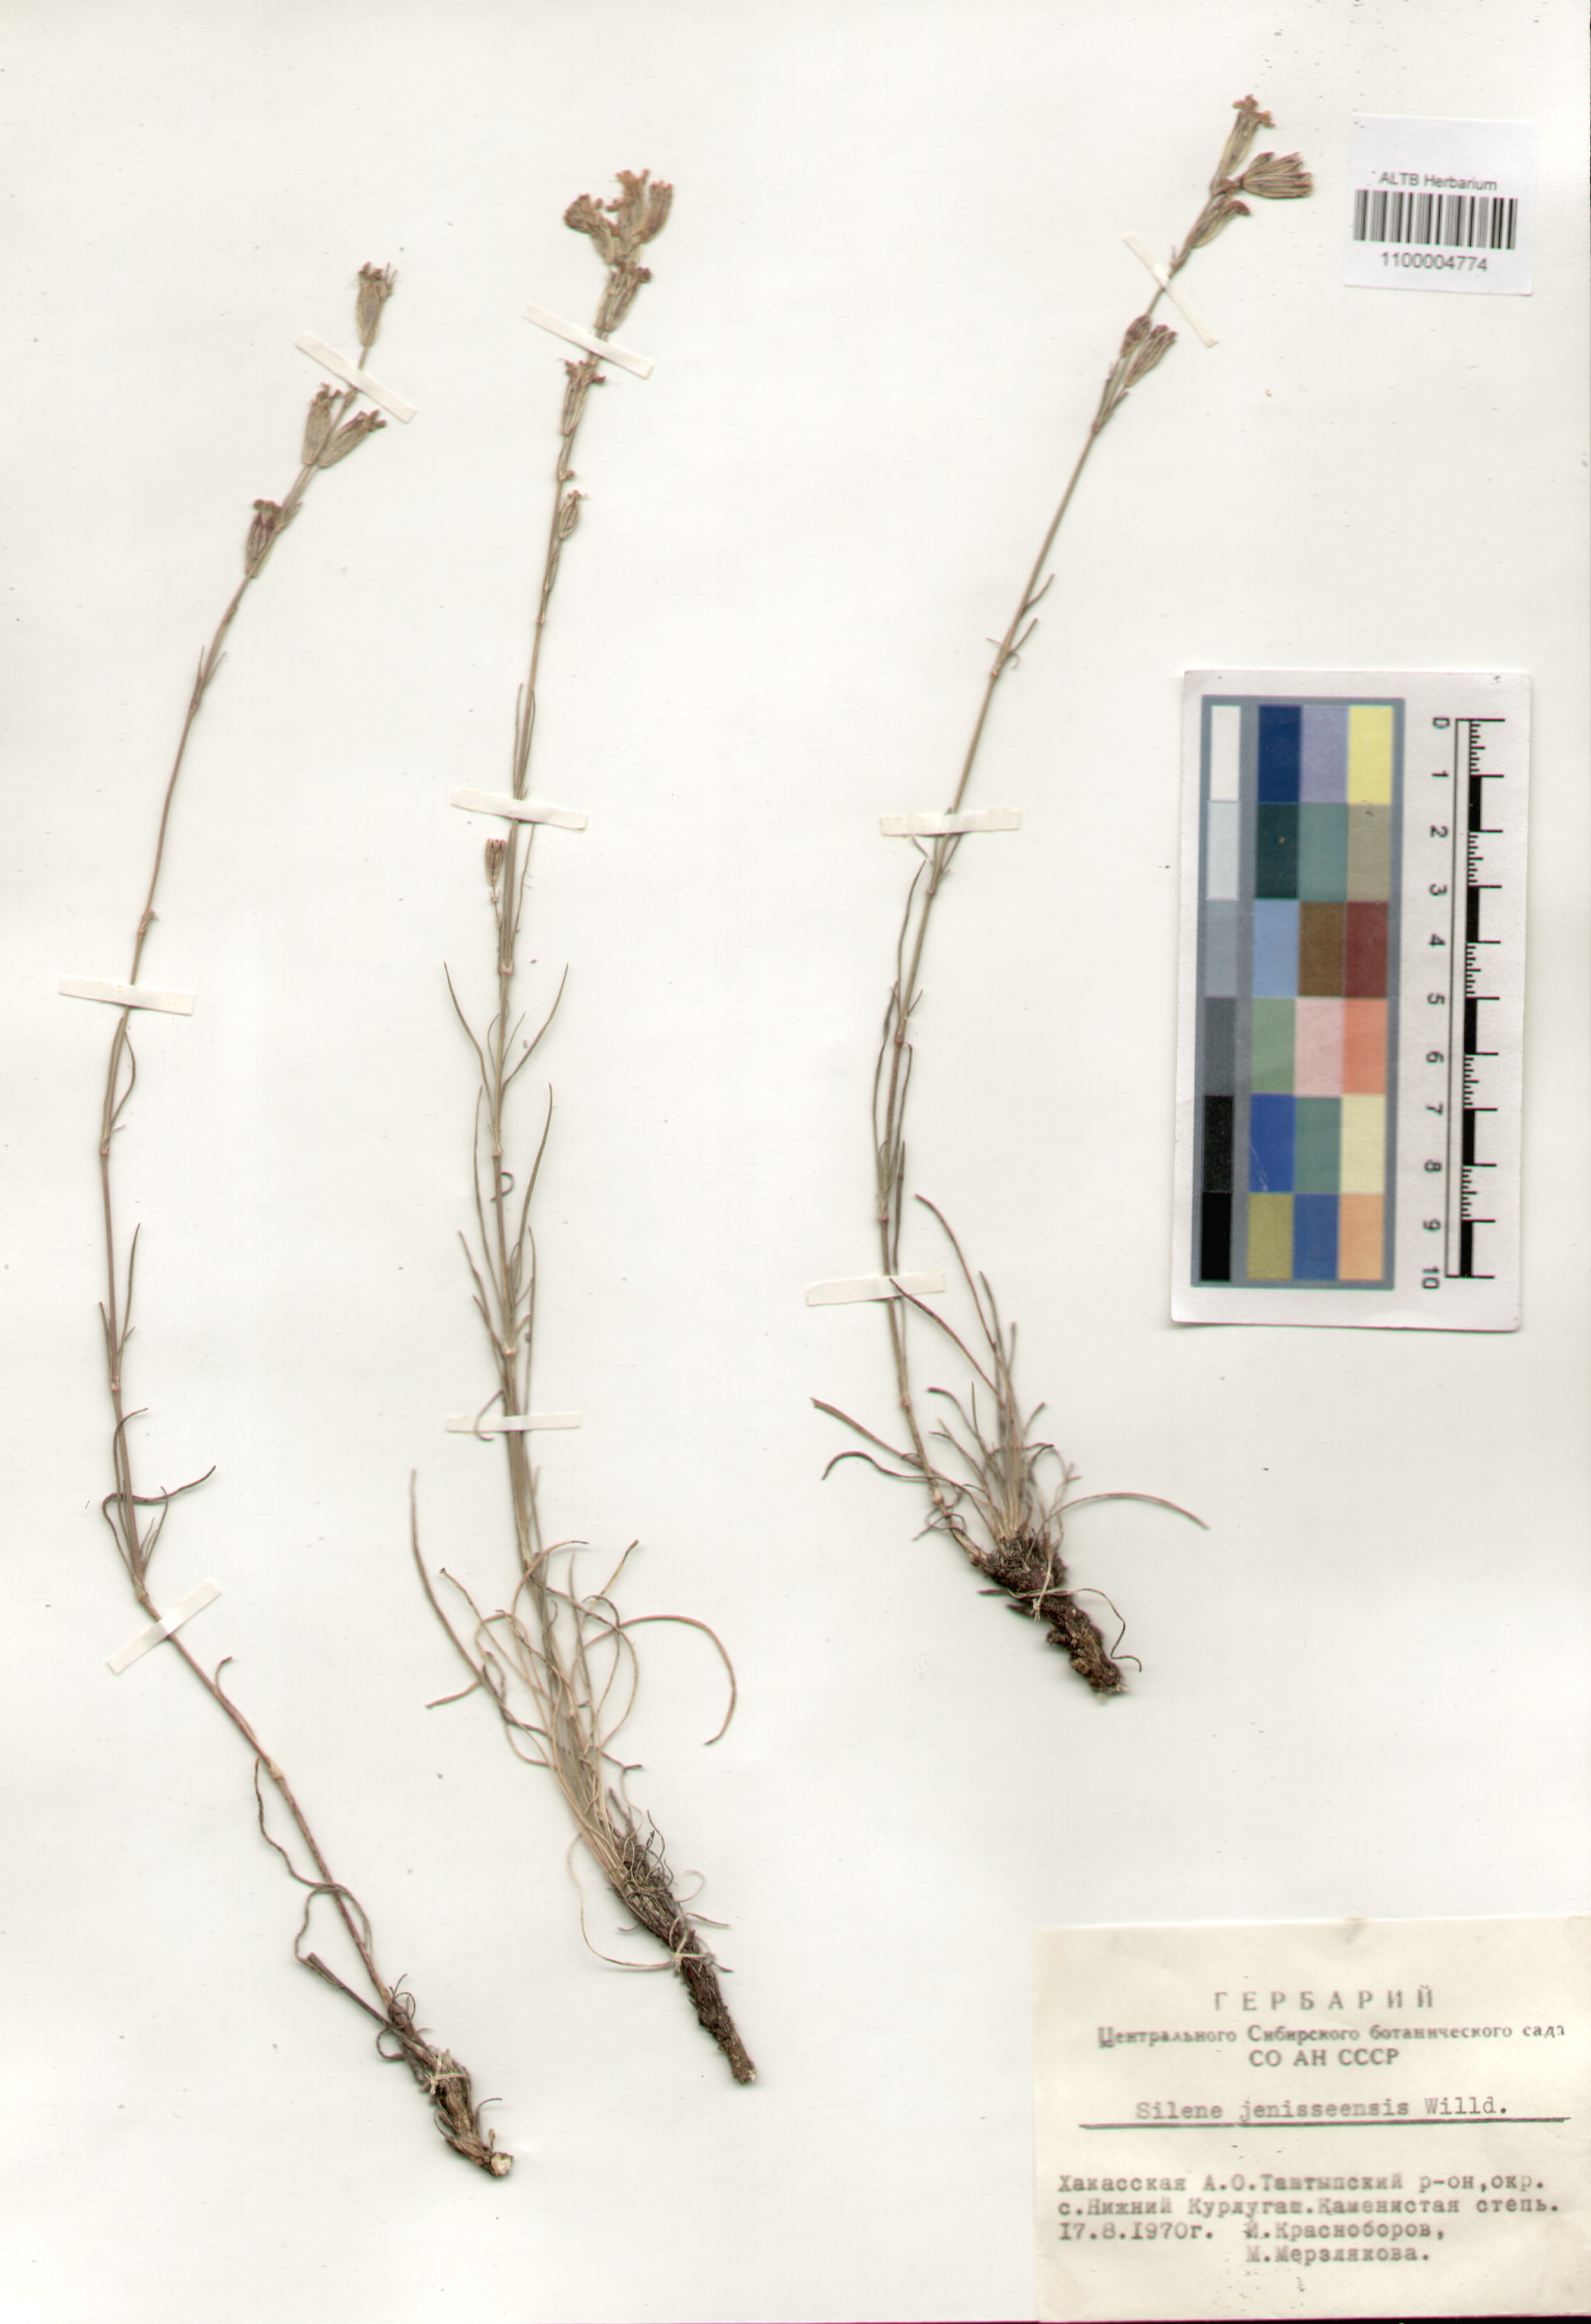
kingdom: Plantae
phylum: Tracheophyta
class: Magnoliopsida
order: Caryophyllales
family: Caryophyllaceae
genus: Silene
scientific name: Silene jeniseensis
